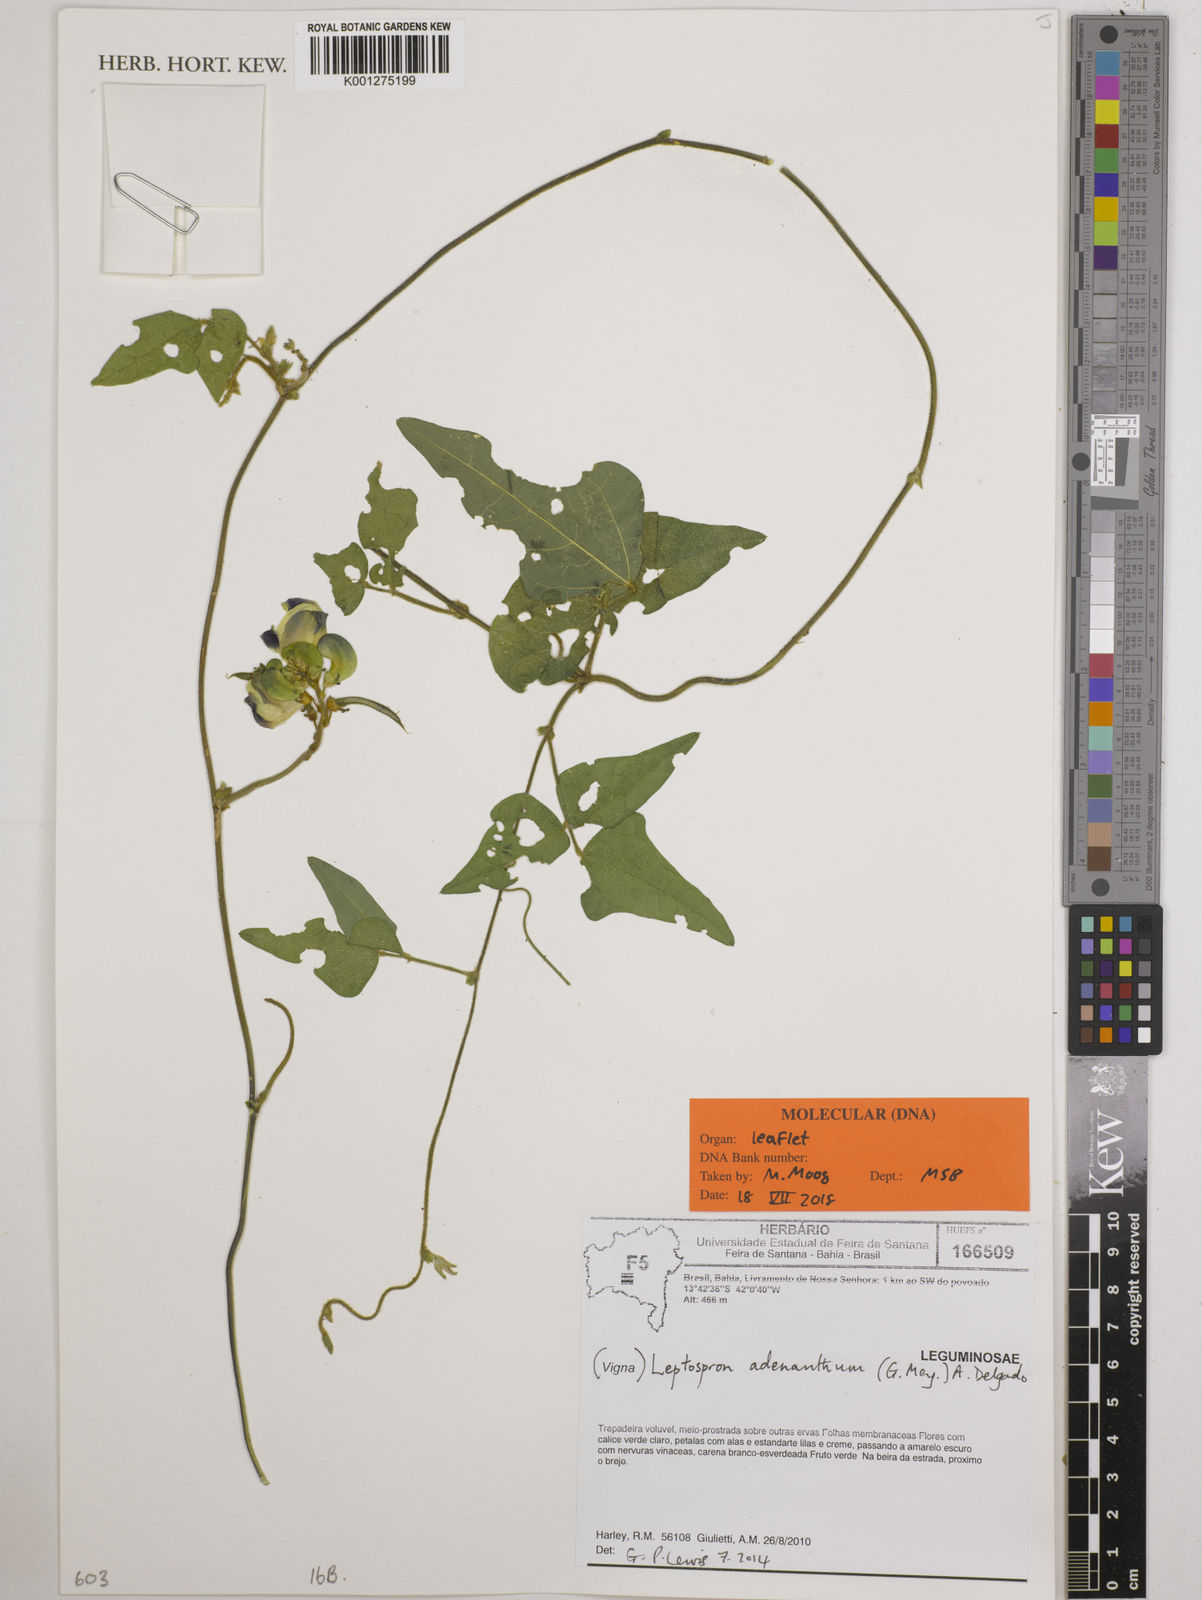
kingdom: Plantae
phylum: Tracheophyta
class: Magnoliopsida
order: Fabales
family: Fabaceae
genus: Leptospron
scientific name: Leptospron adenanthum
